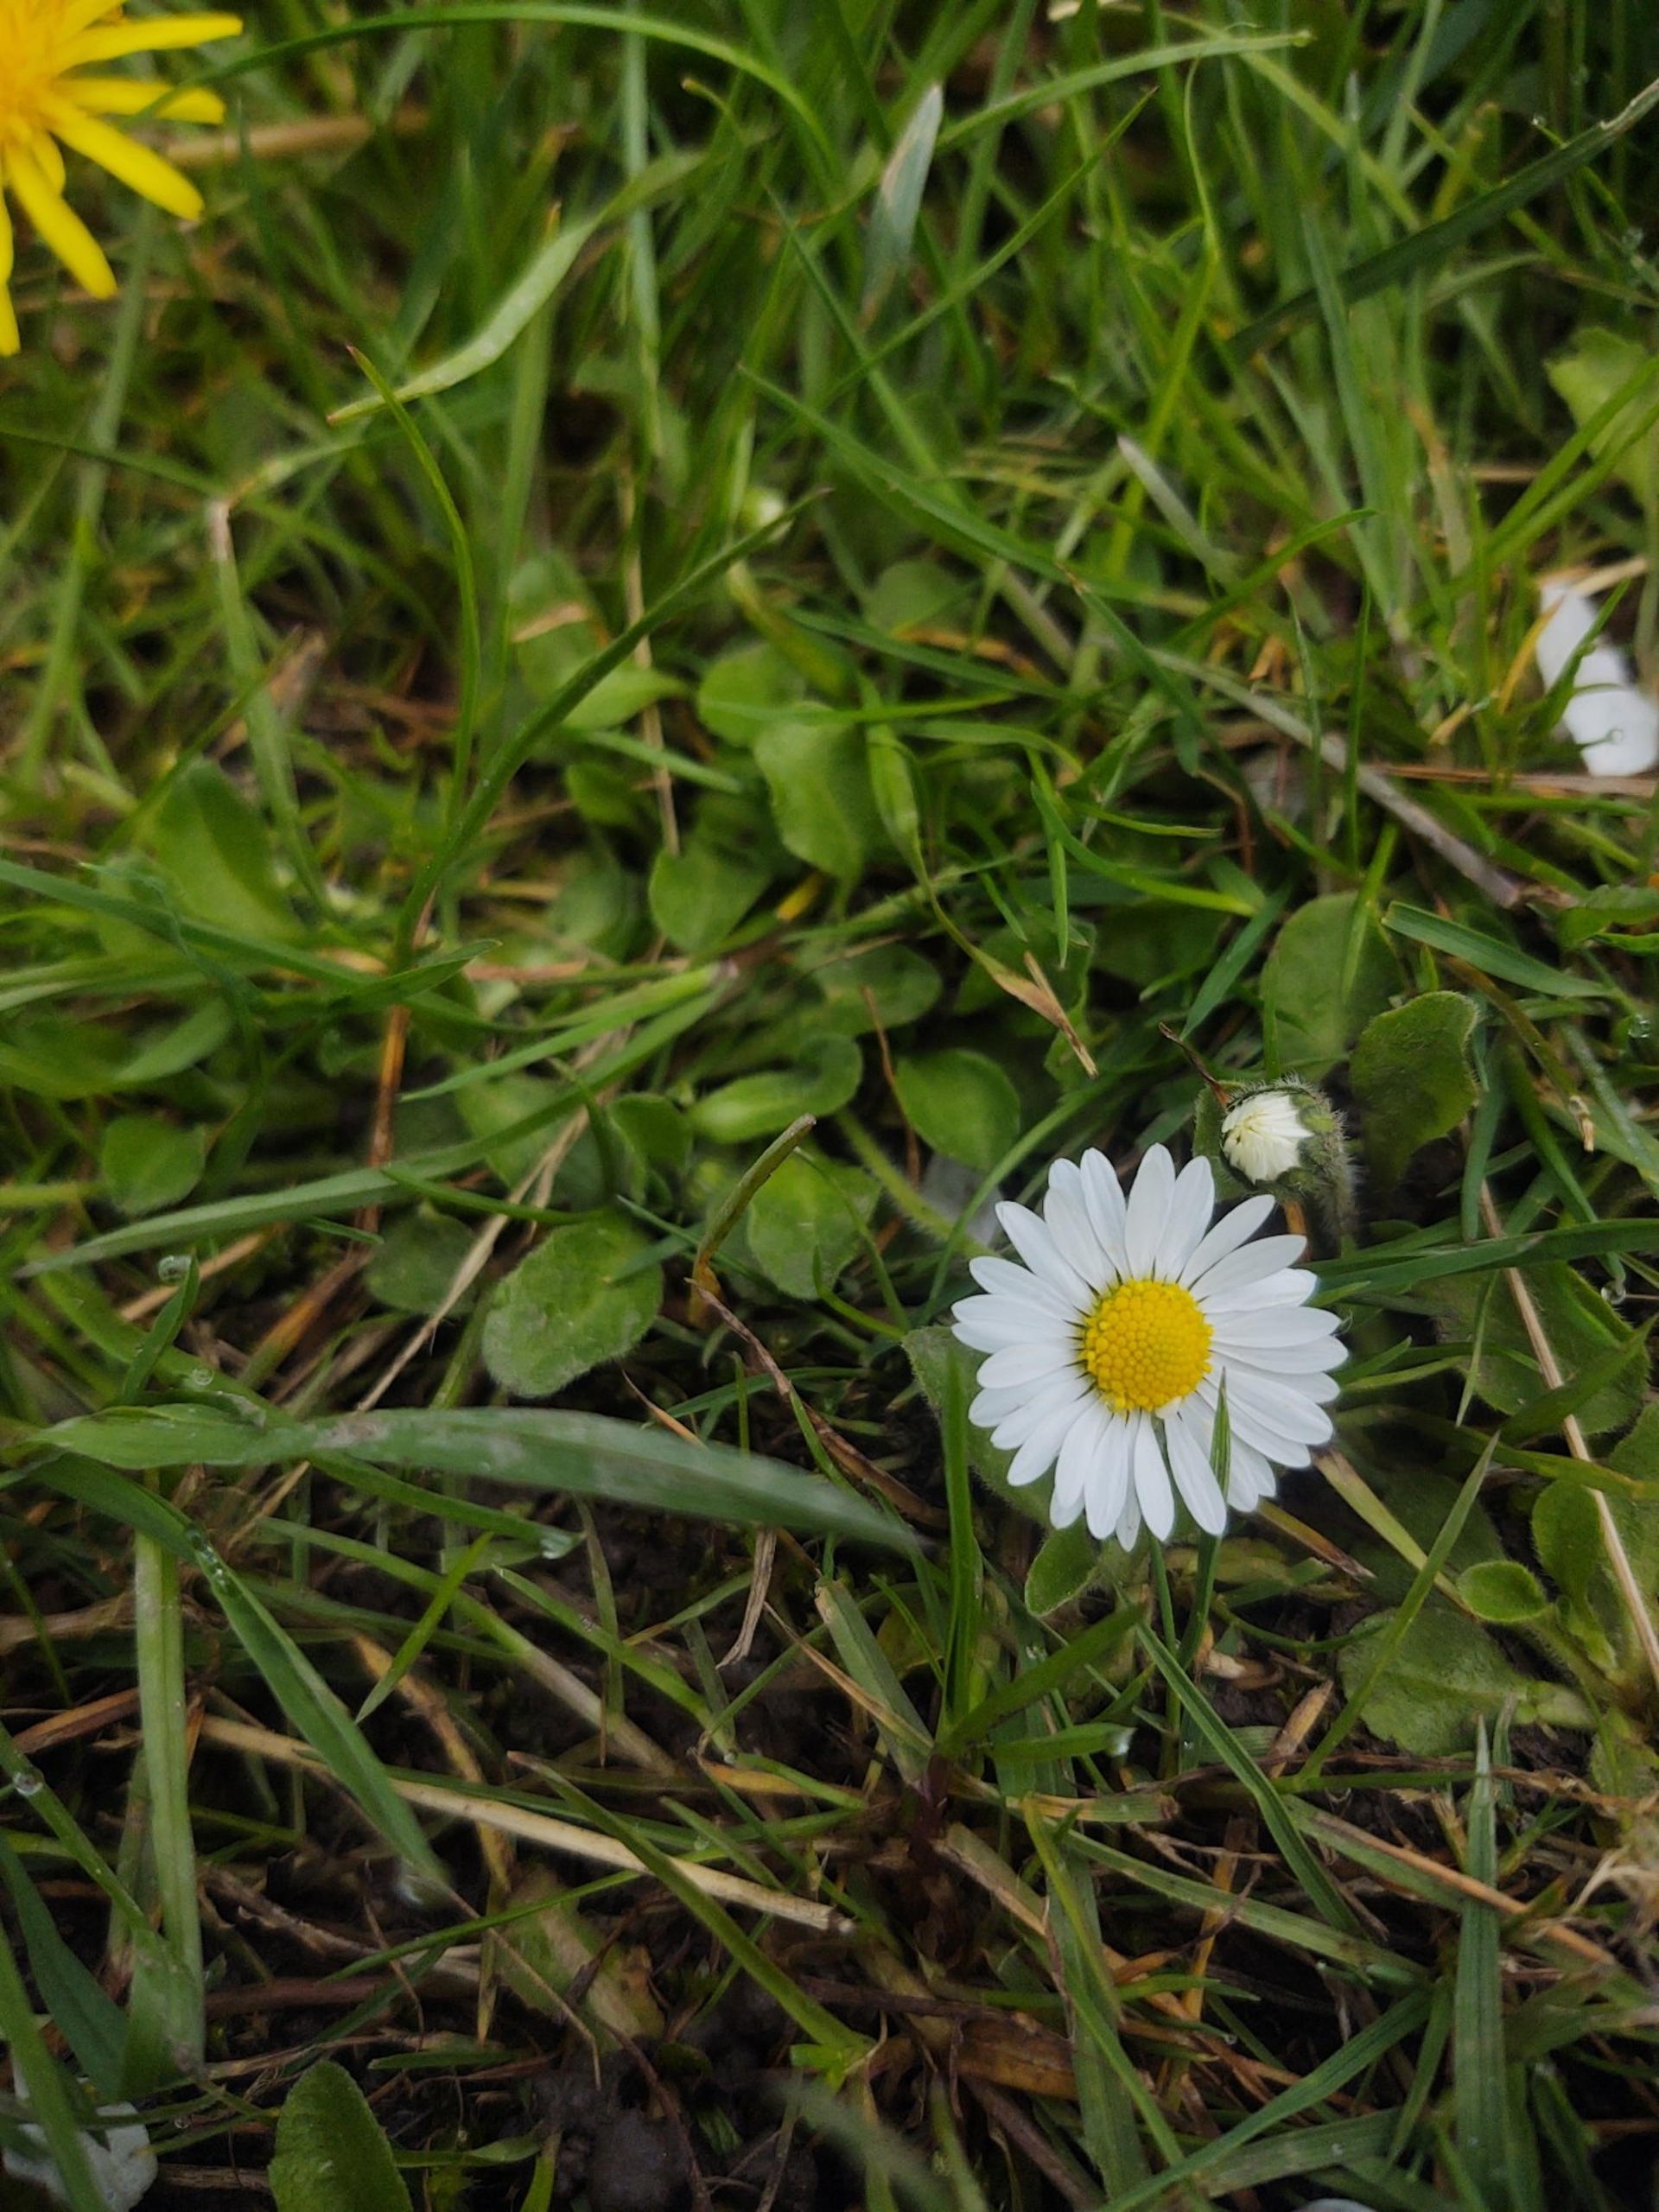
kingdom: Plantae
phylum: Tracheophyta
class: Magnoliopsida
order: Asterales
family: Asteraceae
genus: Bellis
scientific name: Bellis perennis
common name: Tusindfryd
